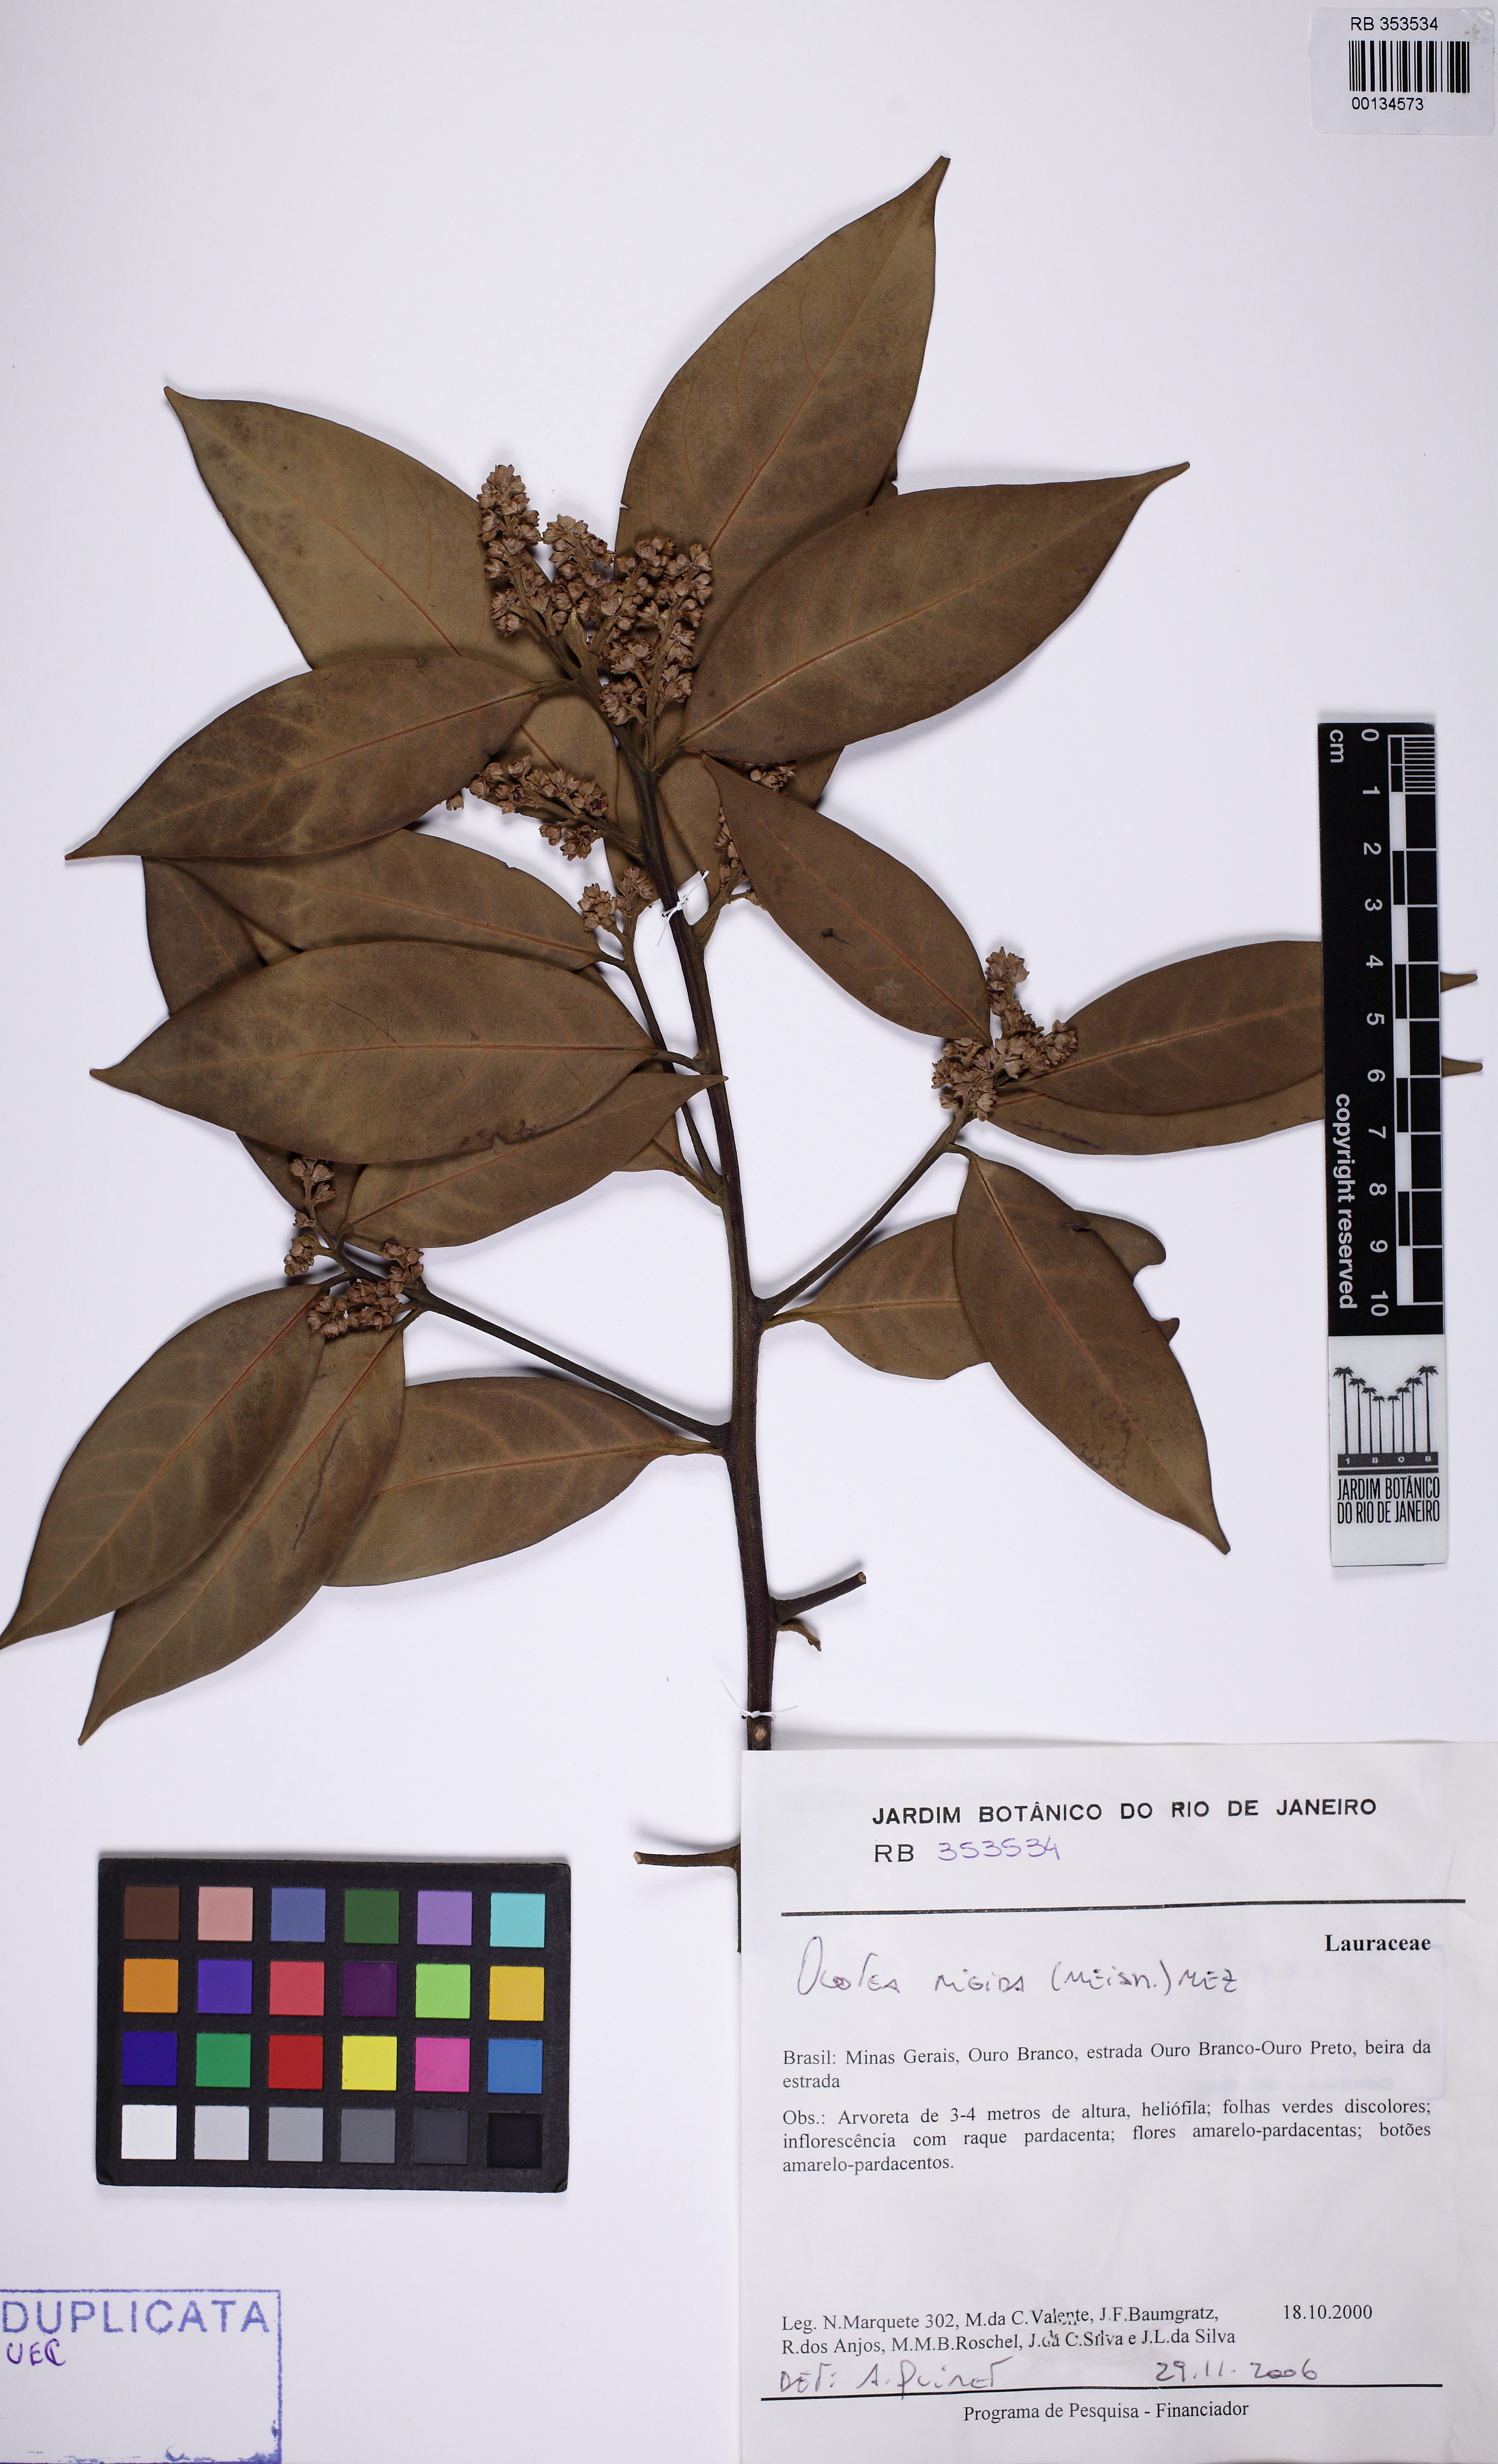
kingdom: Plantae
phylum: Tracheophyta
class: Magnoliopsida
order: Laurales
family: Lauraceae
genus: Ocotea
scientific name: Ocotea percoriacea
